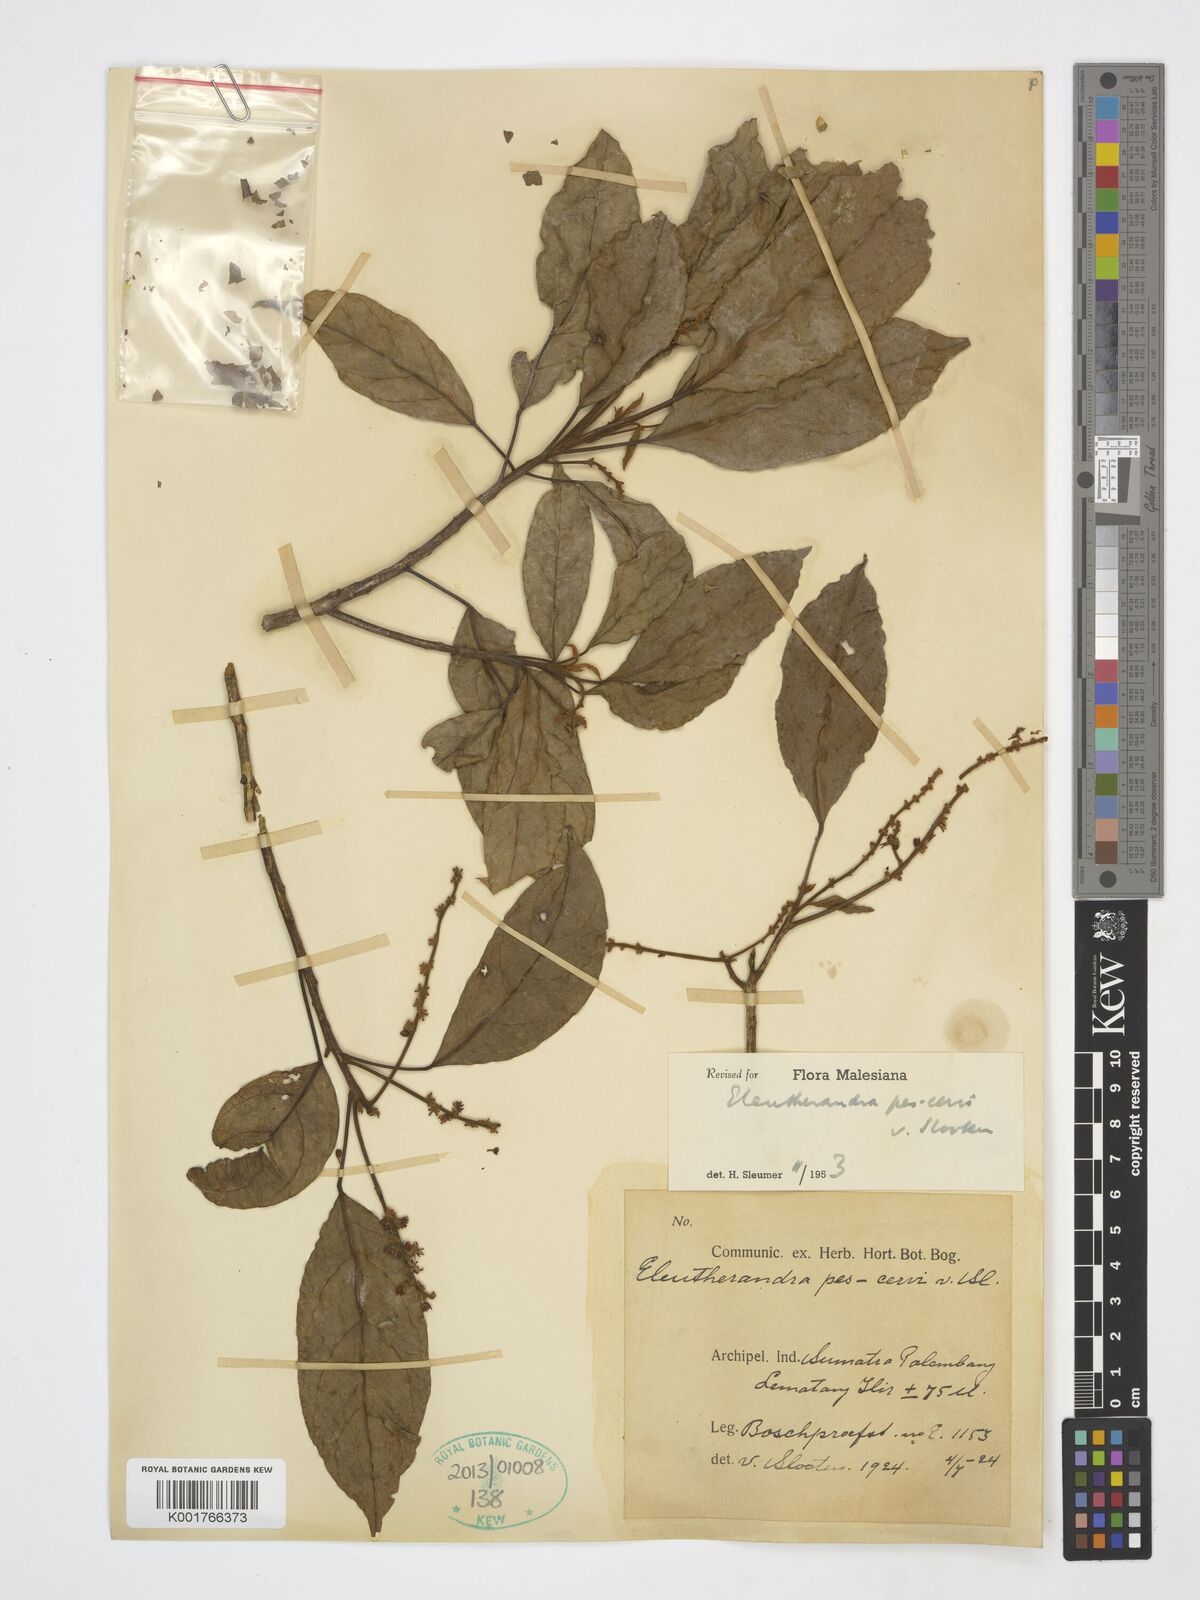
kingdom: Plantae
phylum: Tracheophyta
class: Magnoliopsida
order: Malpighiales
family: Achariaceae
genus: Eleutherandra
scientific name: Eleutherandra pes-cervi
